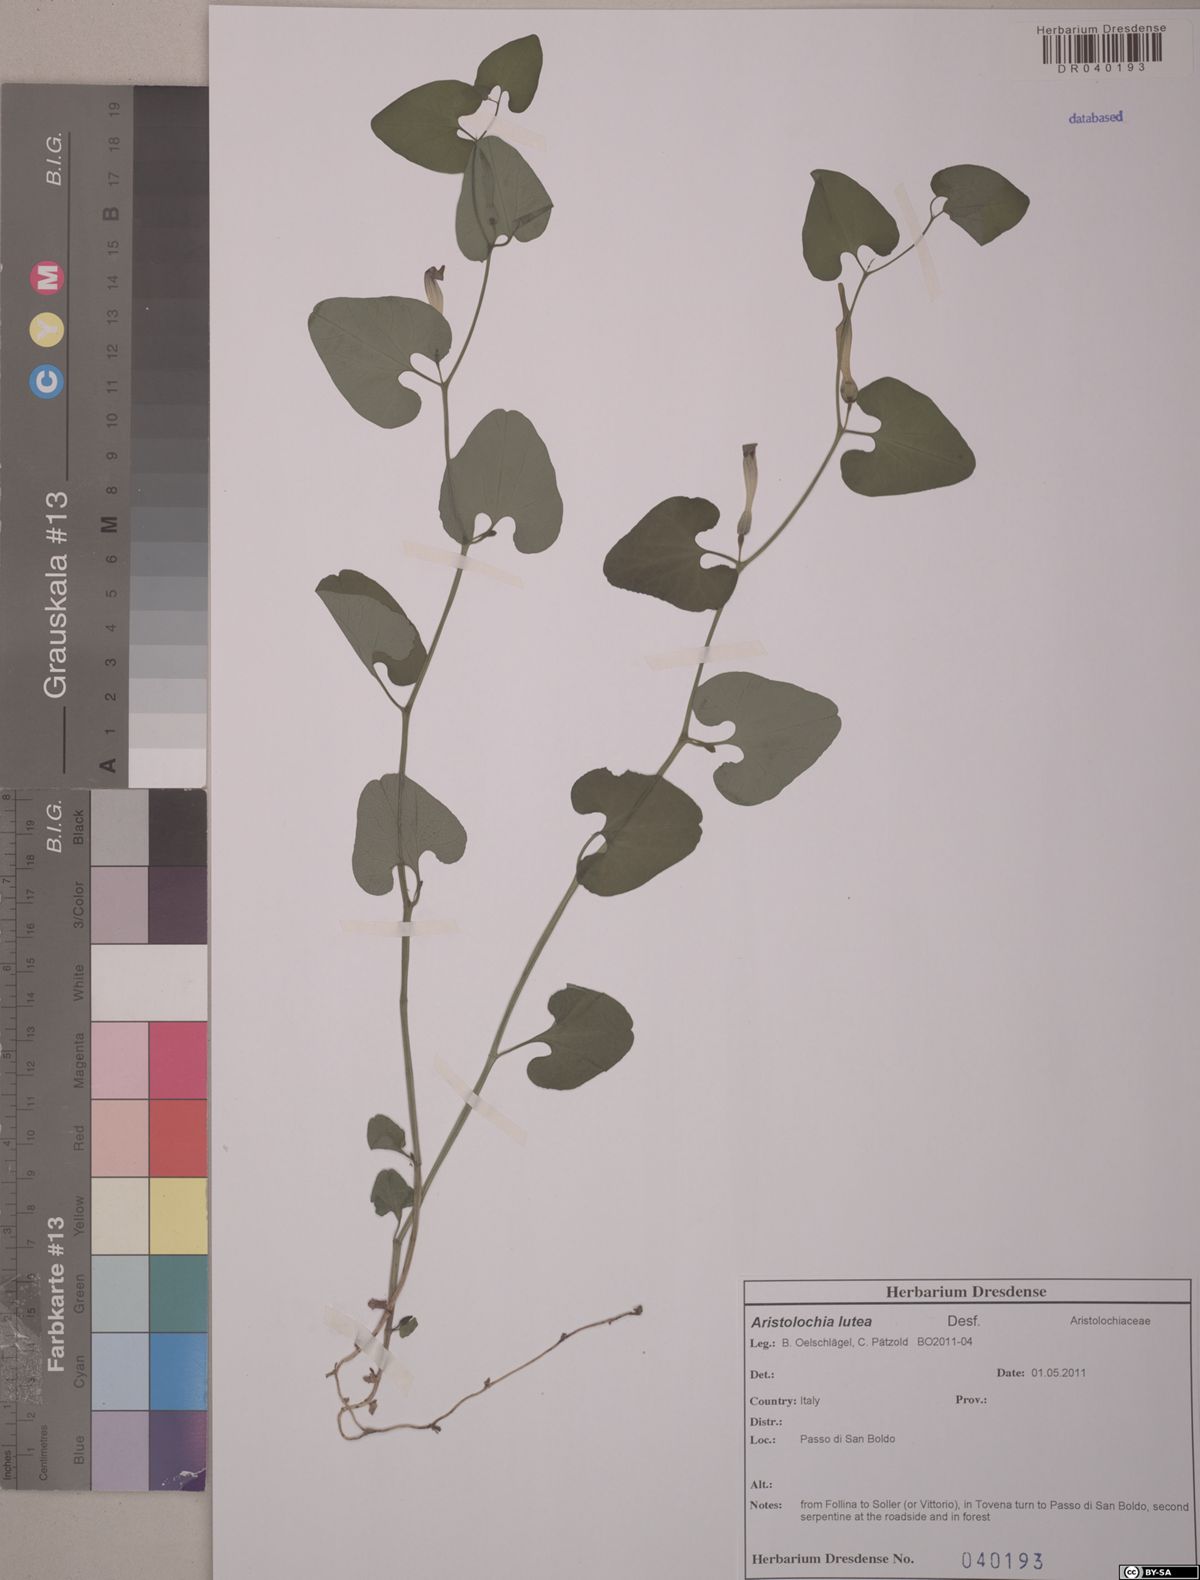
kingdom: Plantae
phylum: Tracheophyta
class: Magnoliopsida
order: Piperales
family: Aristolochiaceae
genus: Aristolochia
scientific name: Aristolochia lutea
